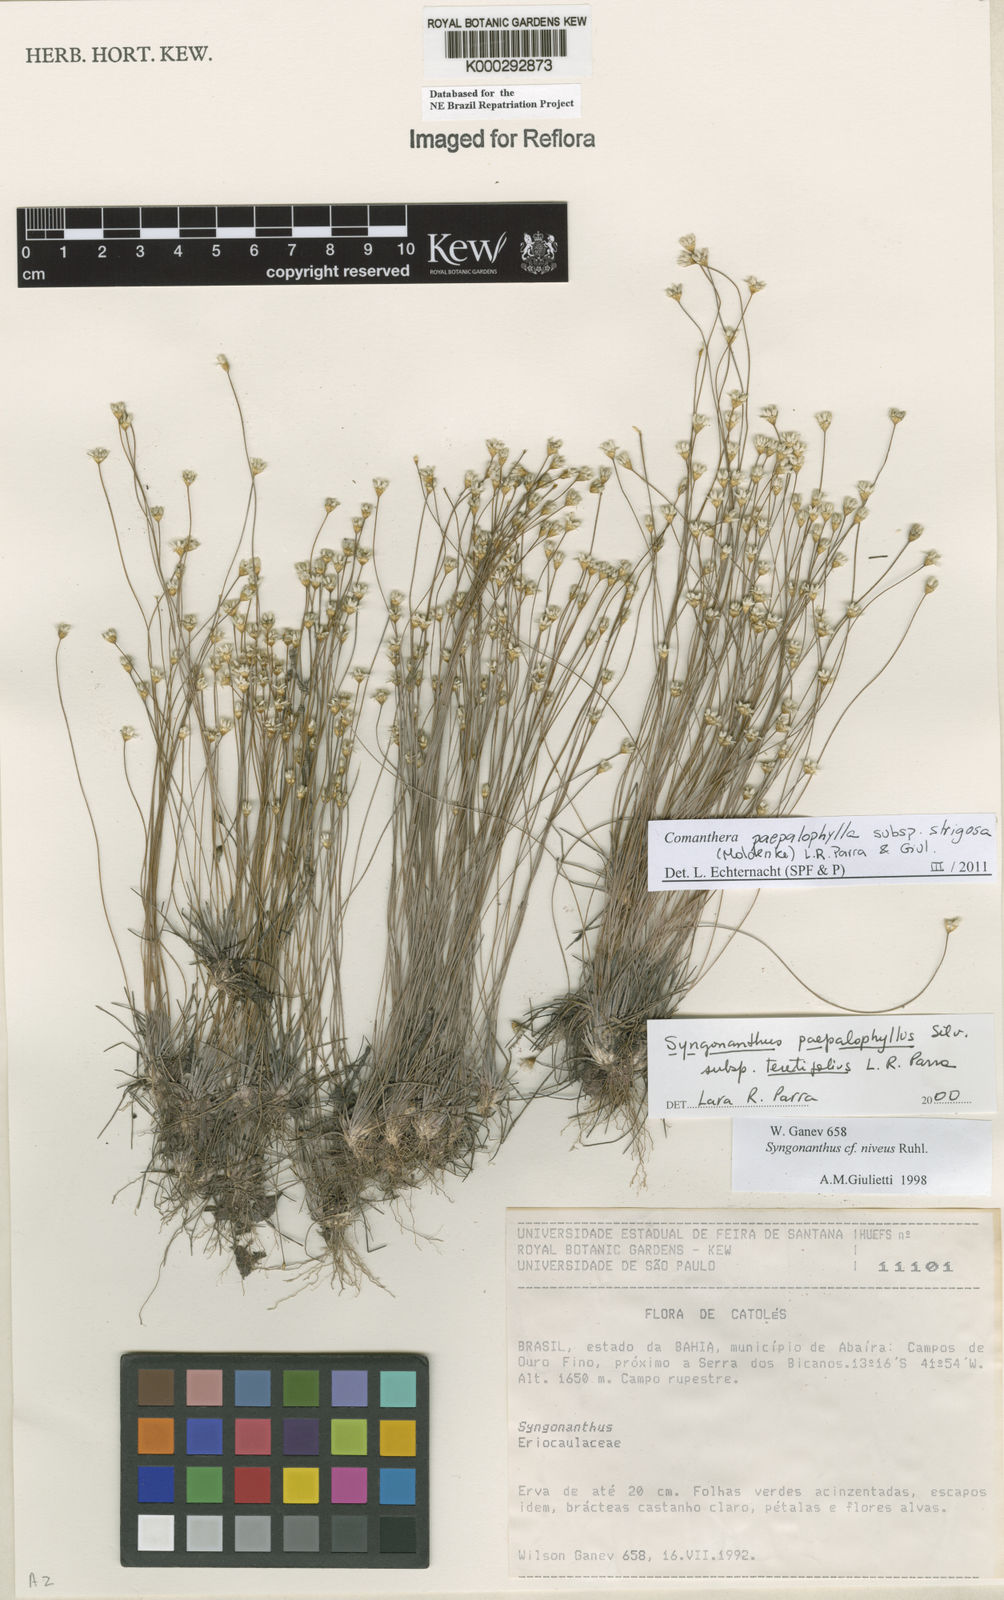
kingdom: Plantae
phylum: Tracheophyta
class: Liliopsida
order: Poales
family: Eriocaulaceae
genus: Comanthera
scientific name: Comanthera paepalophylla
